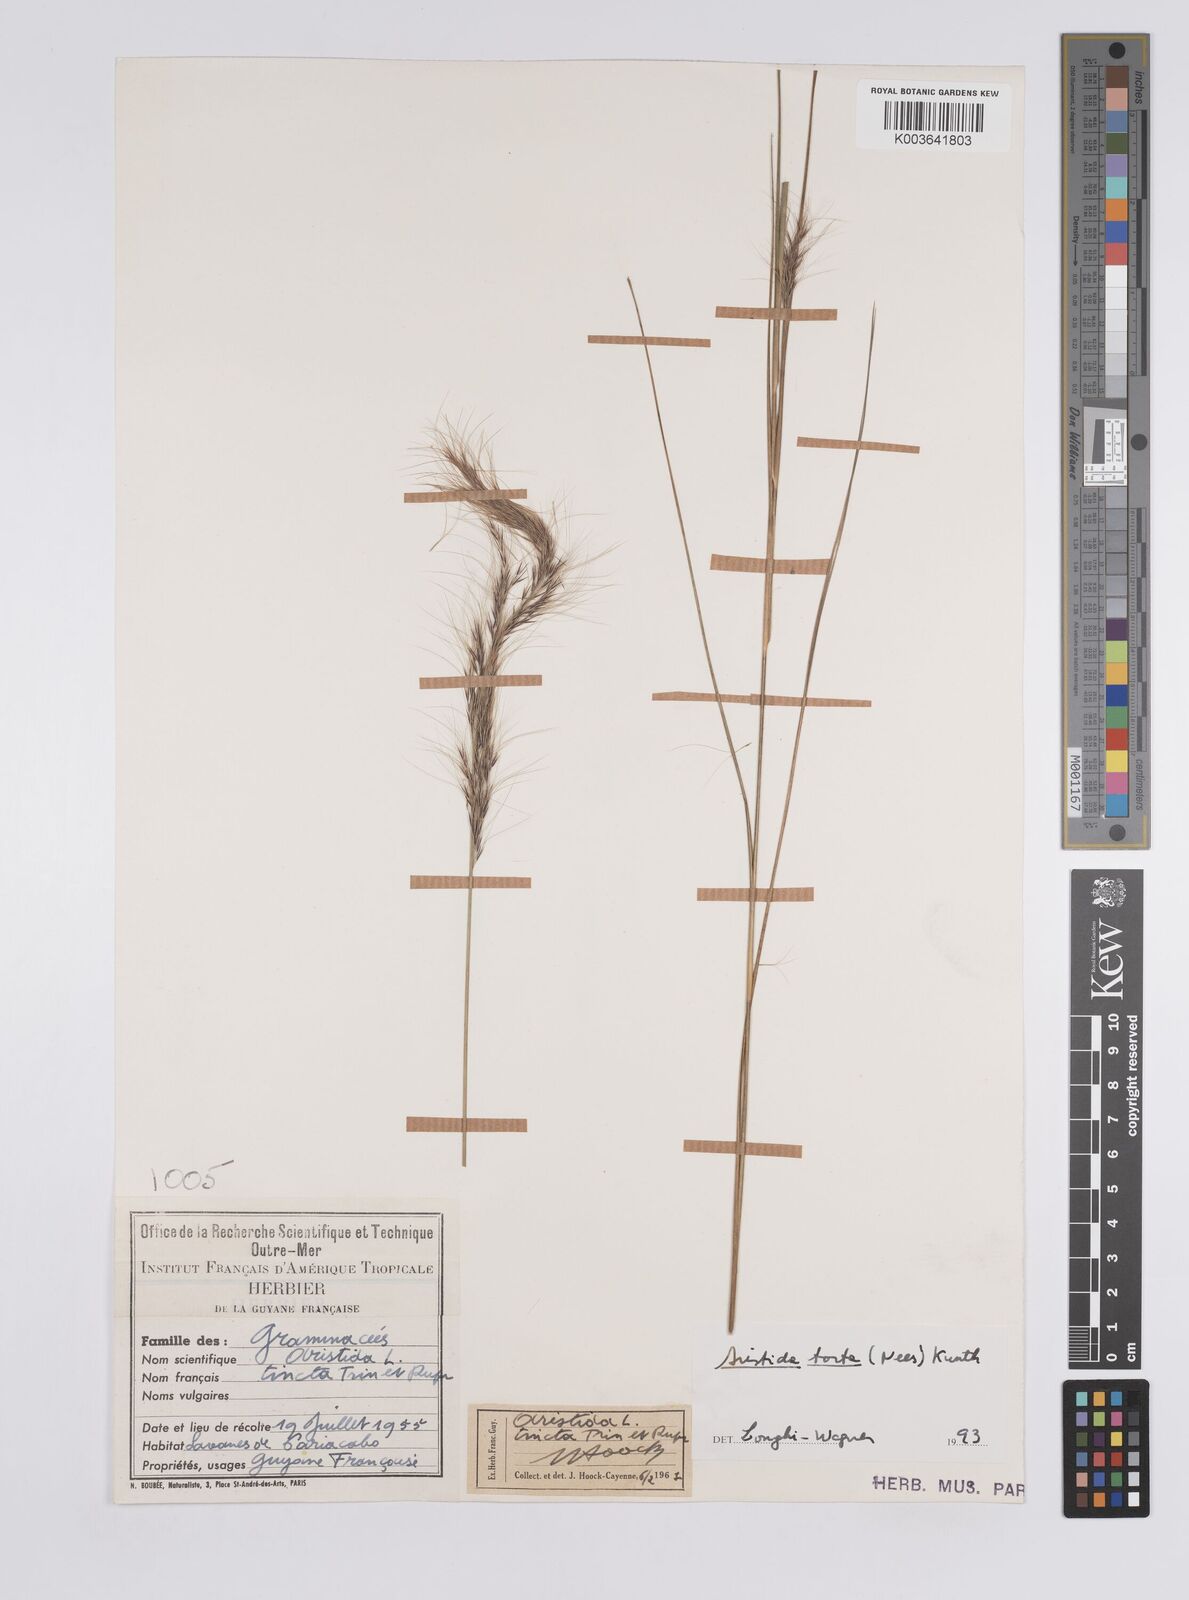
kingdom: Plantae
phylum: Tracheophyta
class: Liliopsida
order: Poales
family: Poaceae
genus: Aristida
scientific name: Aristida torta
